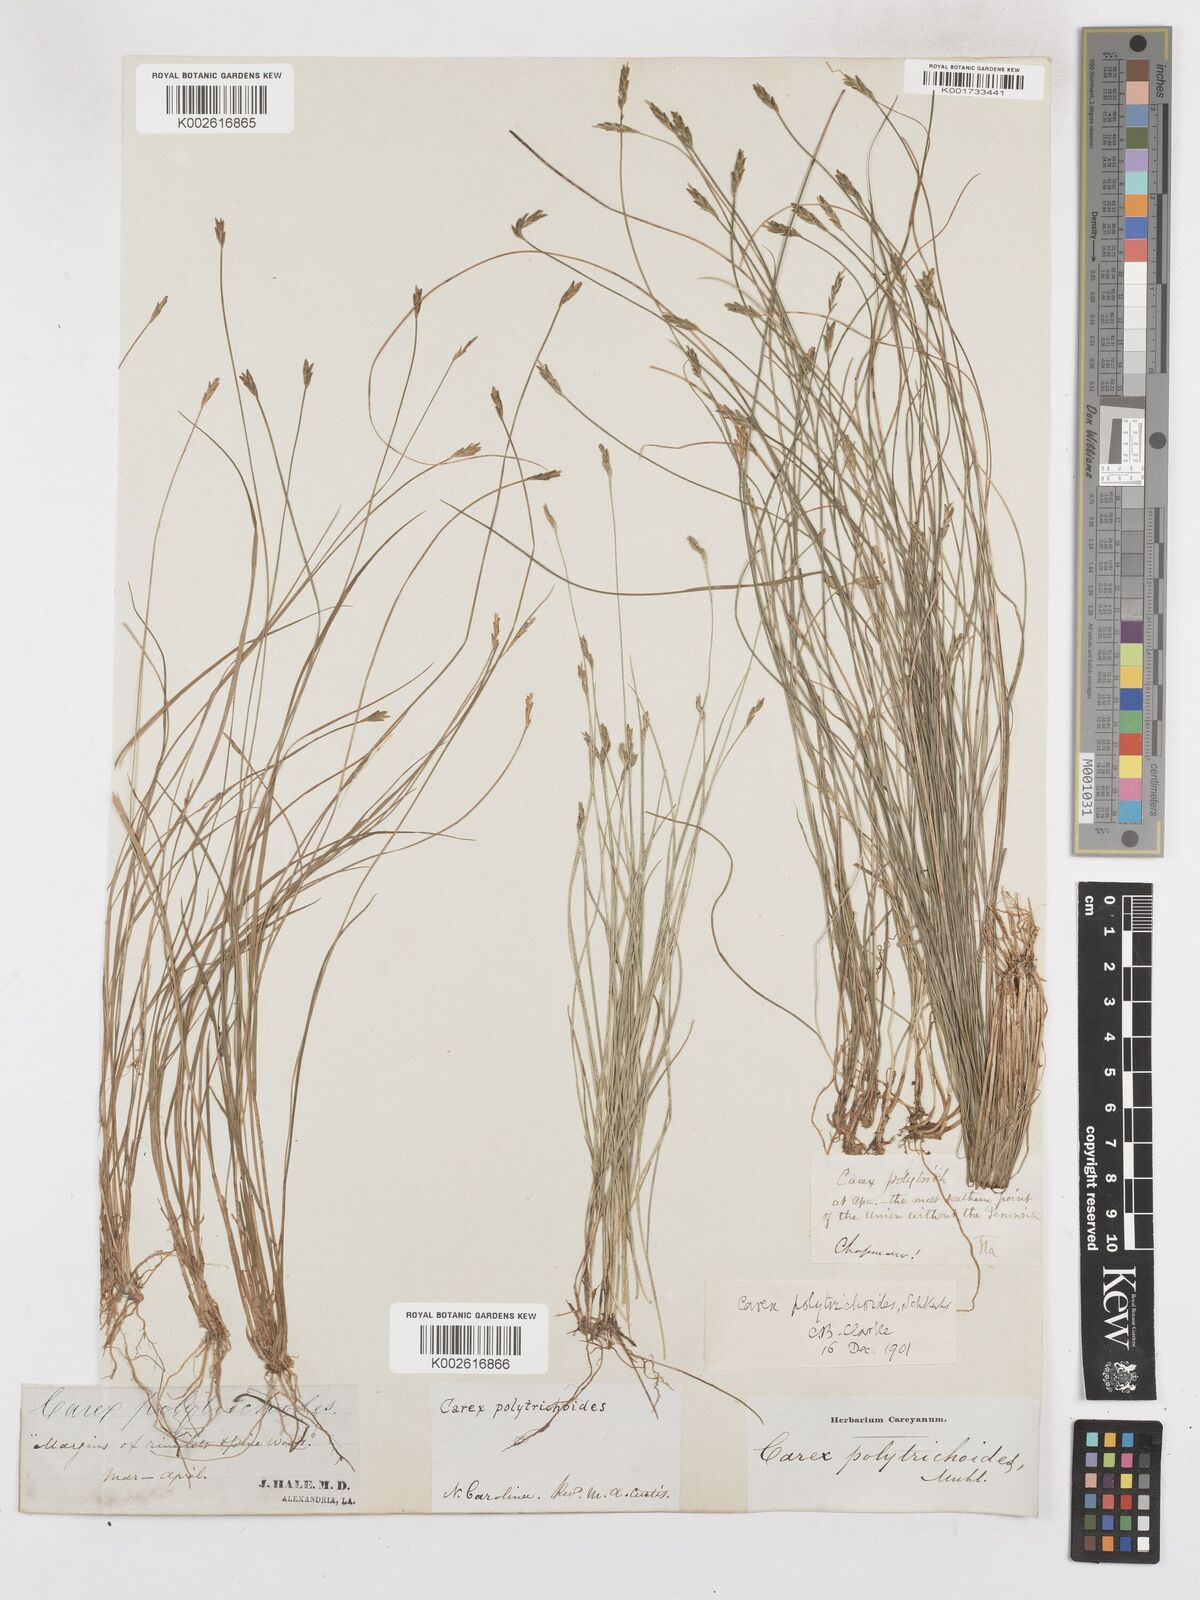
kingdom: Plantae
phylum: Tracheophyta
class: Liliopsida
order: Poales
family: Cyperaceae
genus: Carex
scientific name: Carex leptalea
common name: Bristly-stalked sedge
